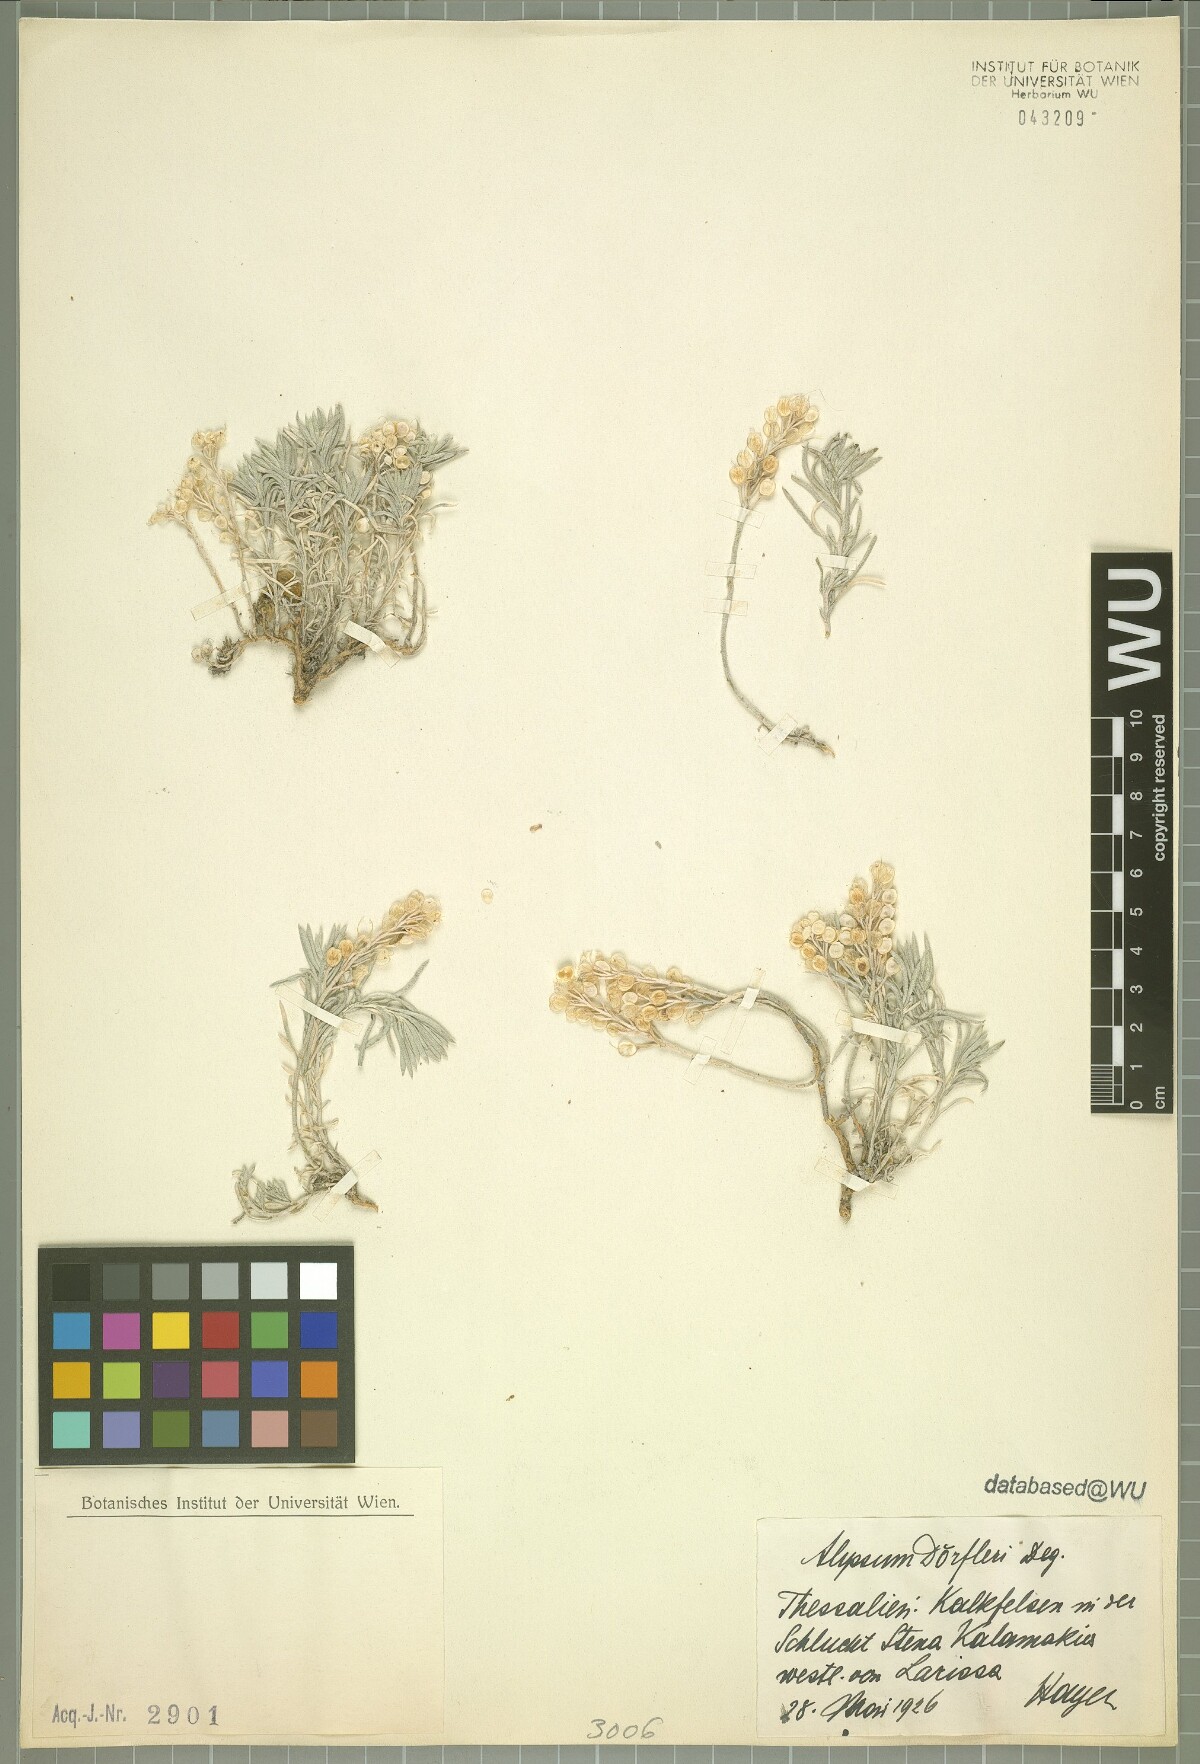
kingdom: Plantae
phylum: Tracheophyta
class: Magnoliopsida
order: Brassicales
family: Brassicaceae
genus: Alyssum
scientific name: Alyssum doerfleri
